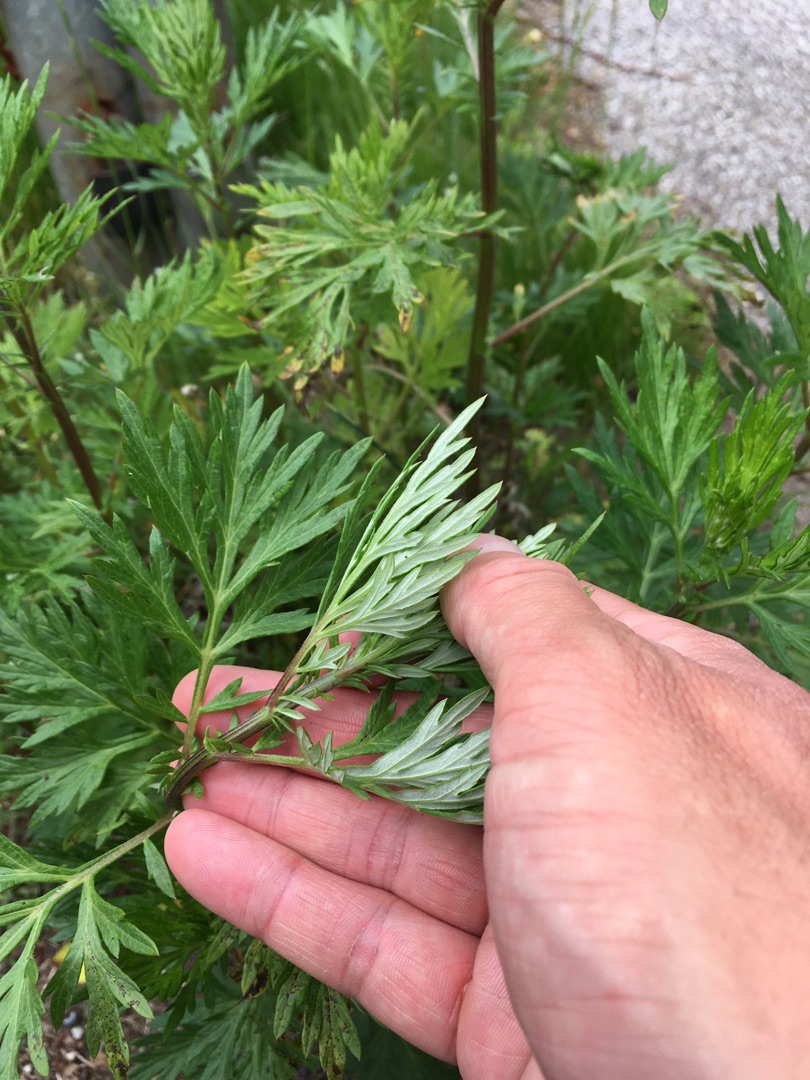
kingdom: Plantae
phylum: Tracheophyta
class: Magnoliopsida
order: Asterales
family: Asteraceae
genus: Artemisia
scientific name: Artemisia vulgaris
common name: Grå-bynke
